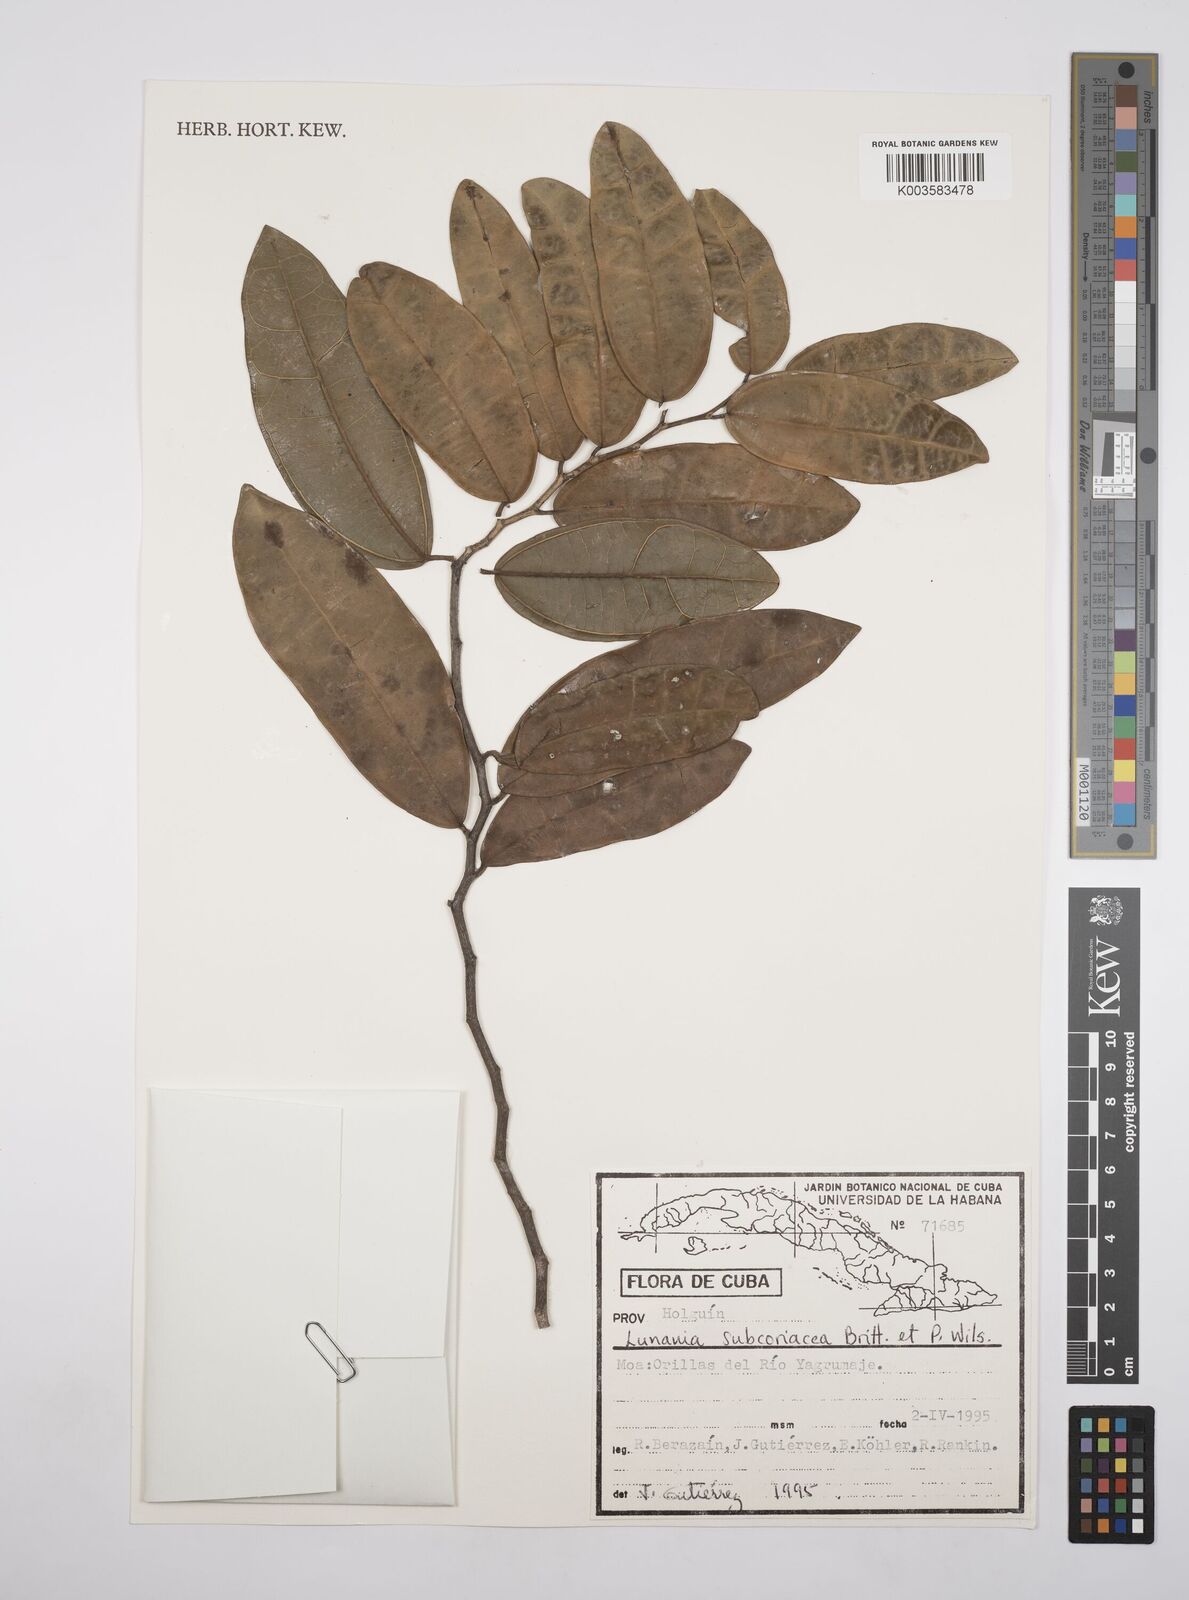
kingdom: Plantae
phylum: Tracheophyta
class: Magnoliopsida
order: Malpighiales
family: Salicaceae
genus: Lunania
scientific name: Lunania subcoriacea
